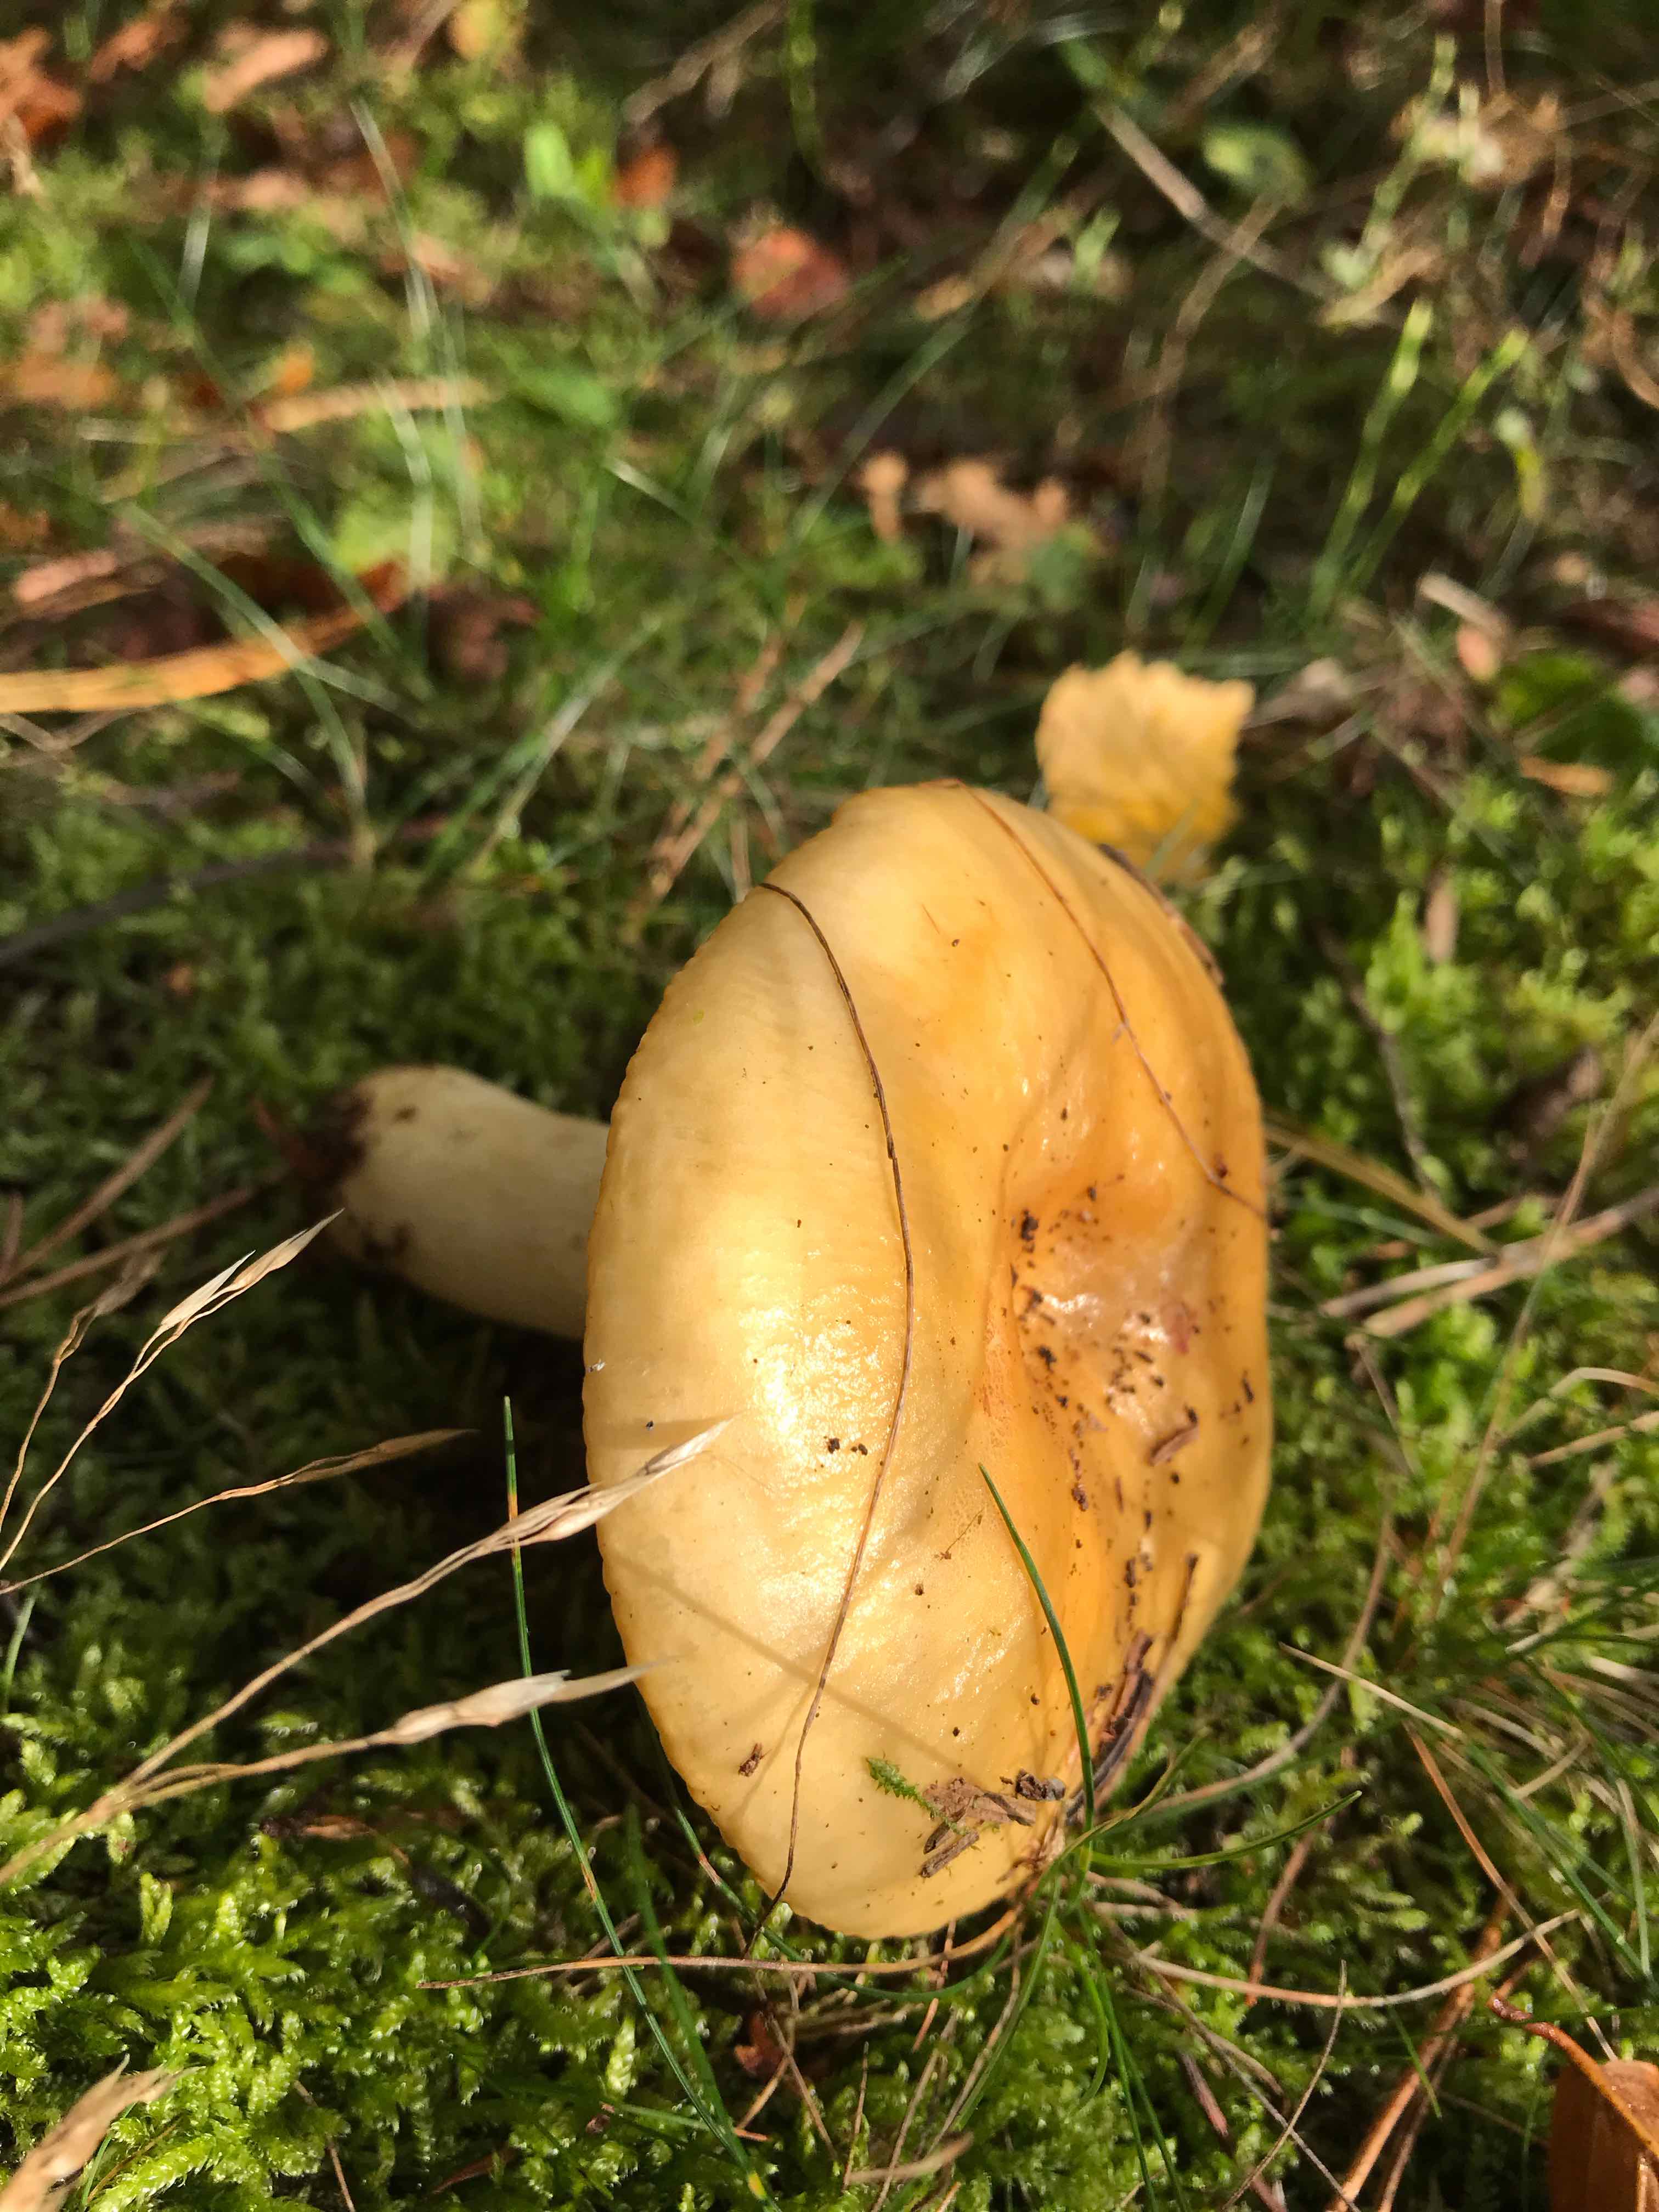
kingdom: Fungi
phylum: Basidiomycota
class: Agaricomycetes
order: Russulales
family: Russulaceae
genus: Russula
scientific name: Russula ochroleuca
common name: okkergul skørhat
